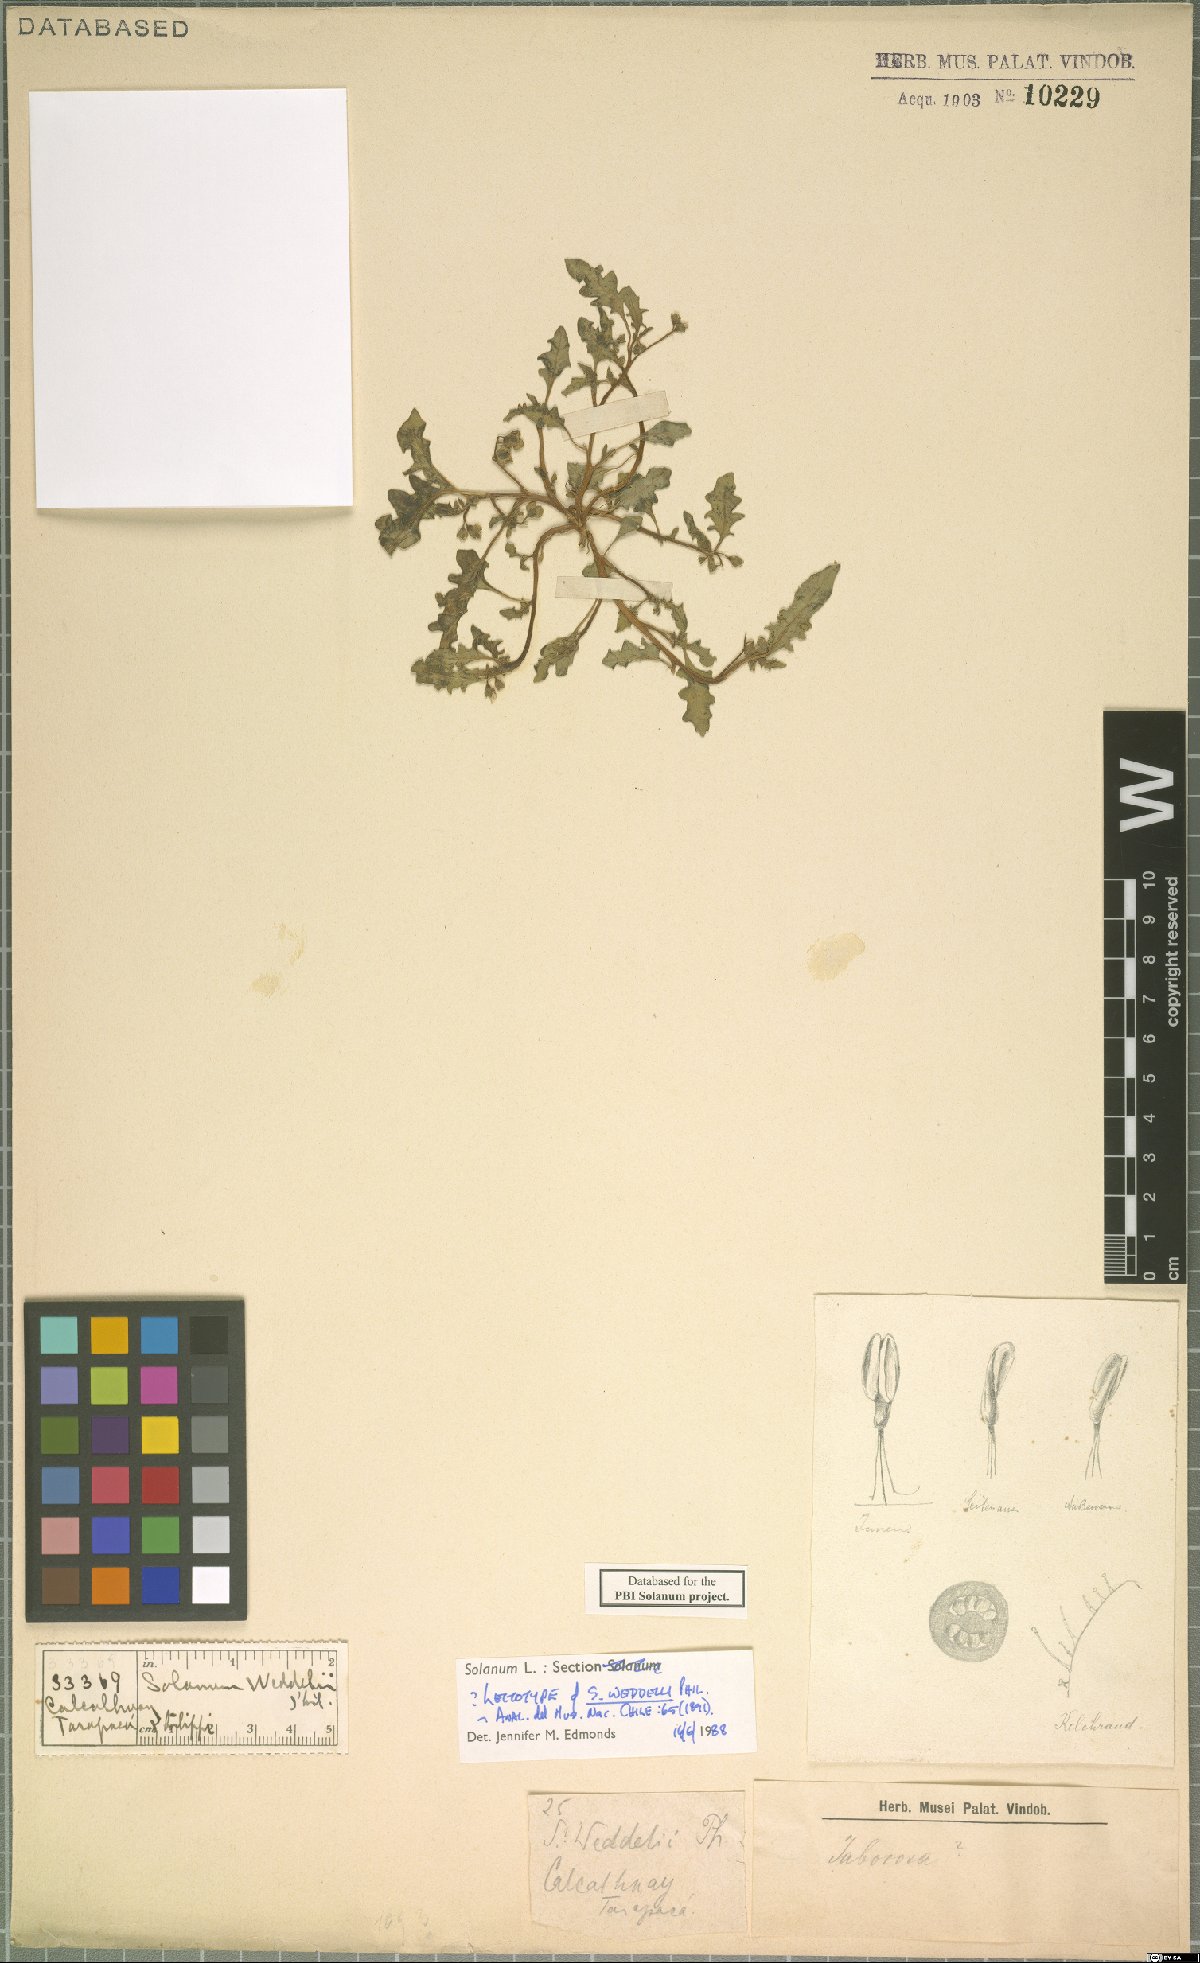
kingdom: Plantae
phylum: Tracheophyta
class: Magnoliopsida
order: Solanales
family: Solanaceae
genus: Solanum
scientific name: Solanum weddellii
